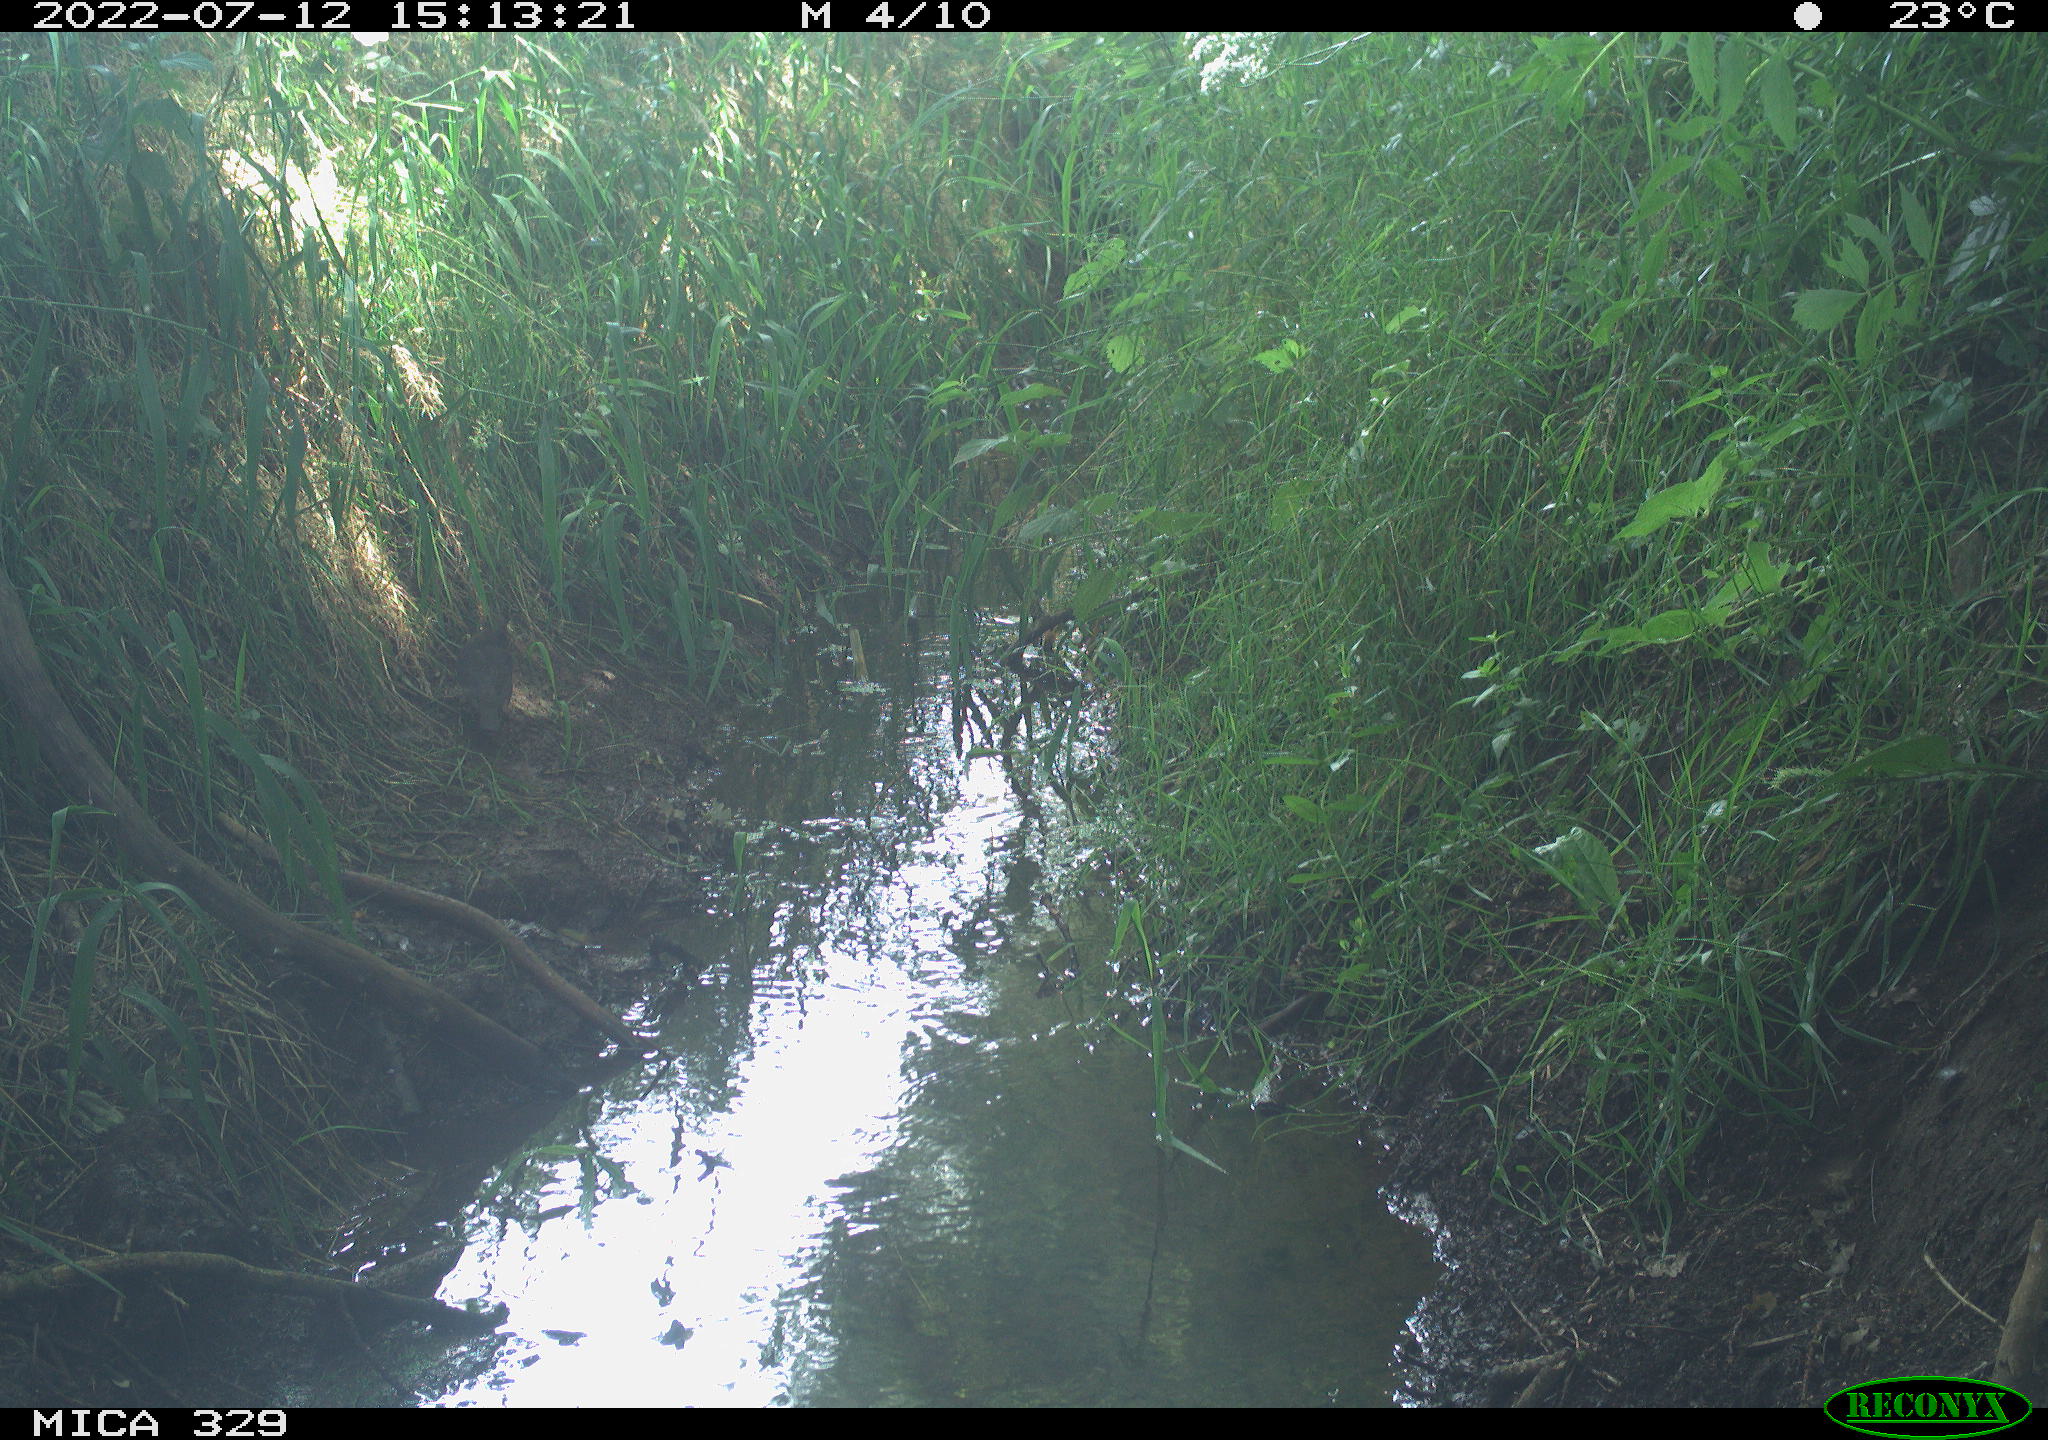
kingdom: Animalia
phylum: Chordata
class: Aves
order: Passeriformes
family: Turdidae
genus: Turdus
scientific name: Turdus merula
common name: Common blackbird
